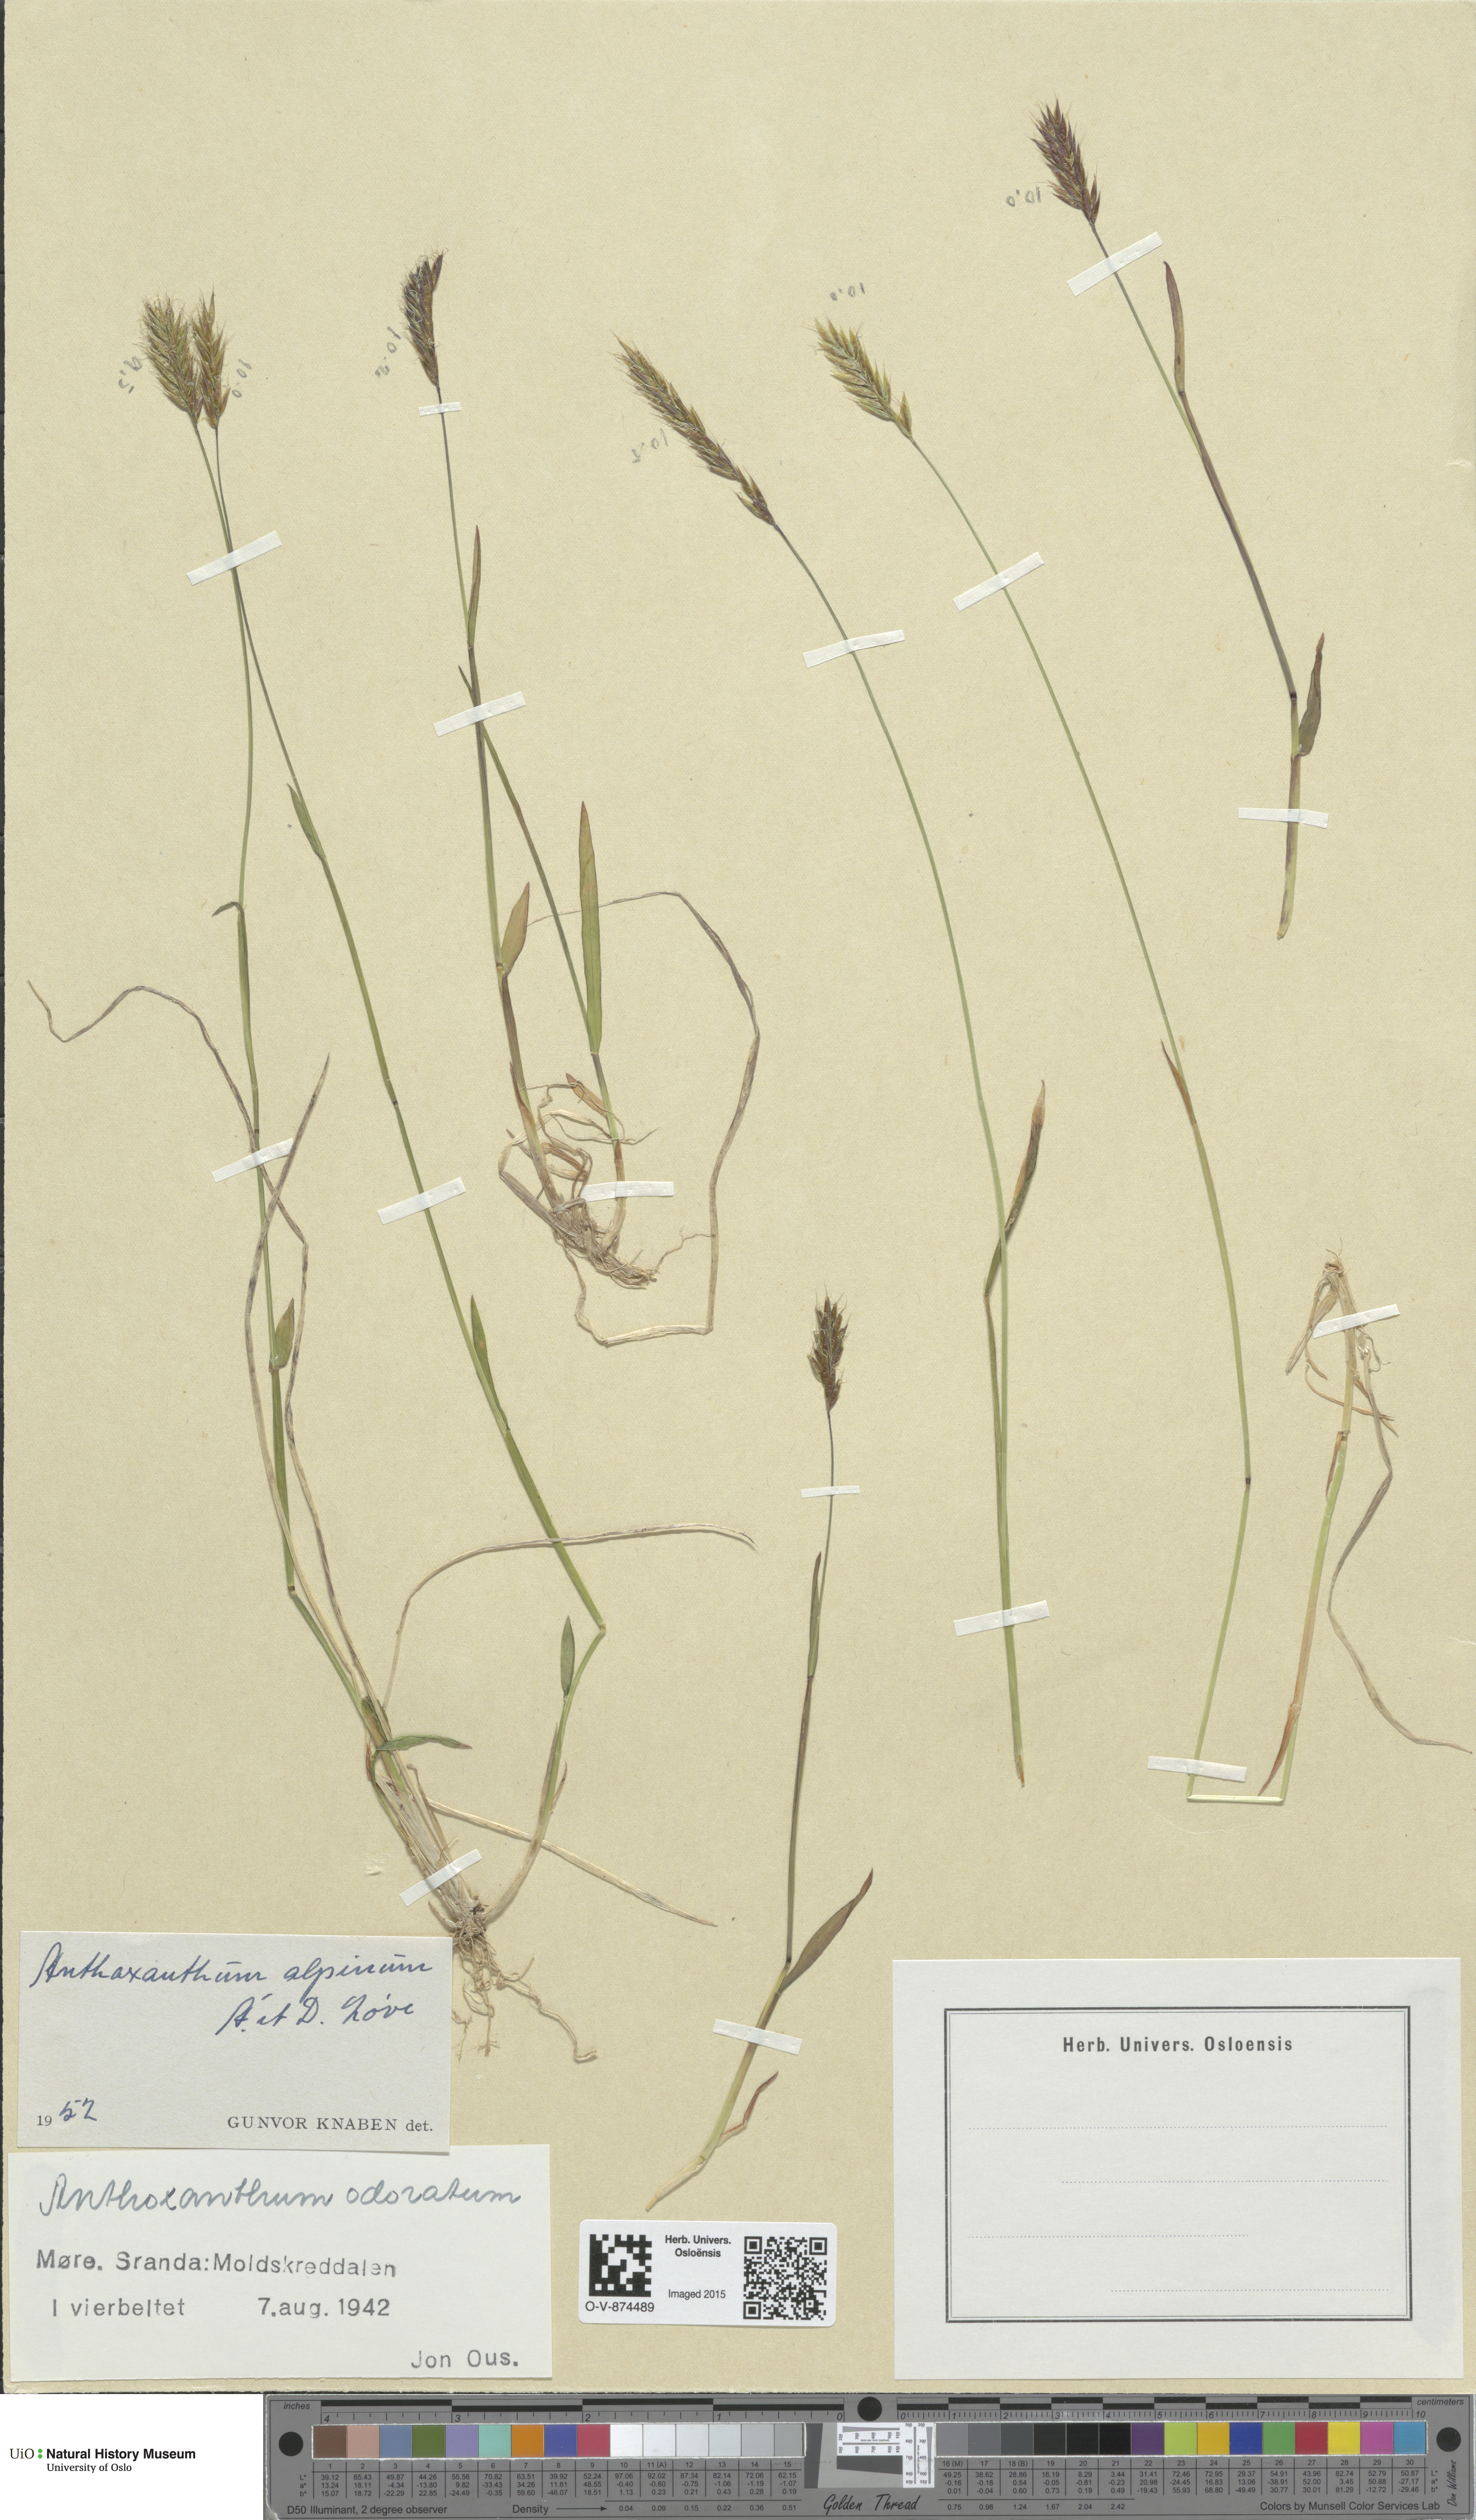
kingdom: Plantae
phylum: Tracheophyta
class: Liliopsida
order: Poales
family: Poaceae
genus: Anthoxanthum
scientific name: Anthoxanthum nipponicum
